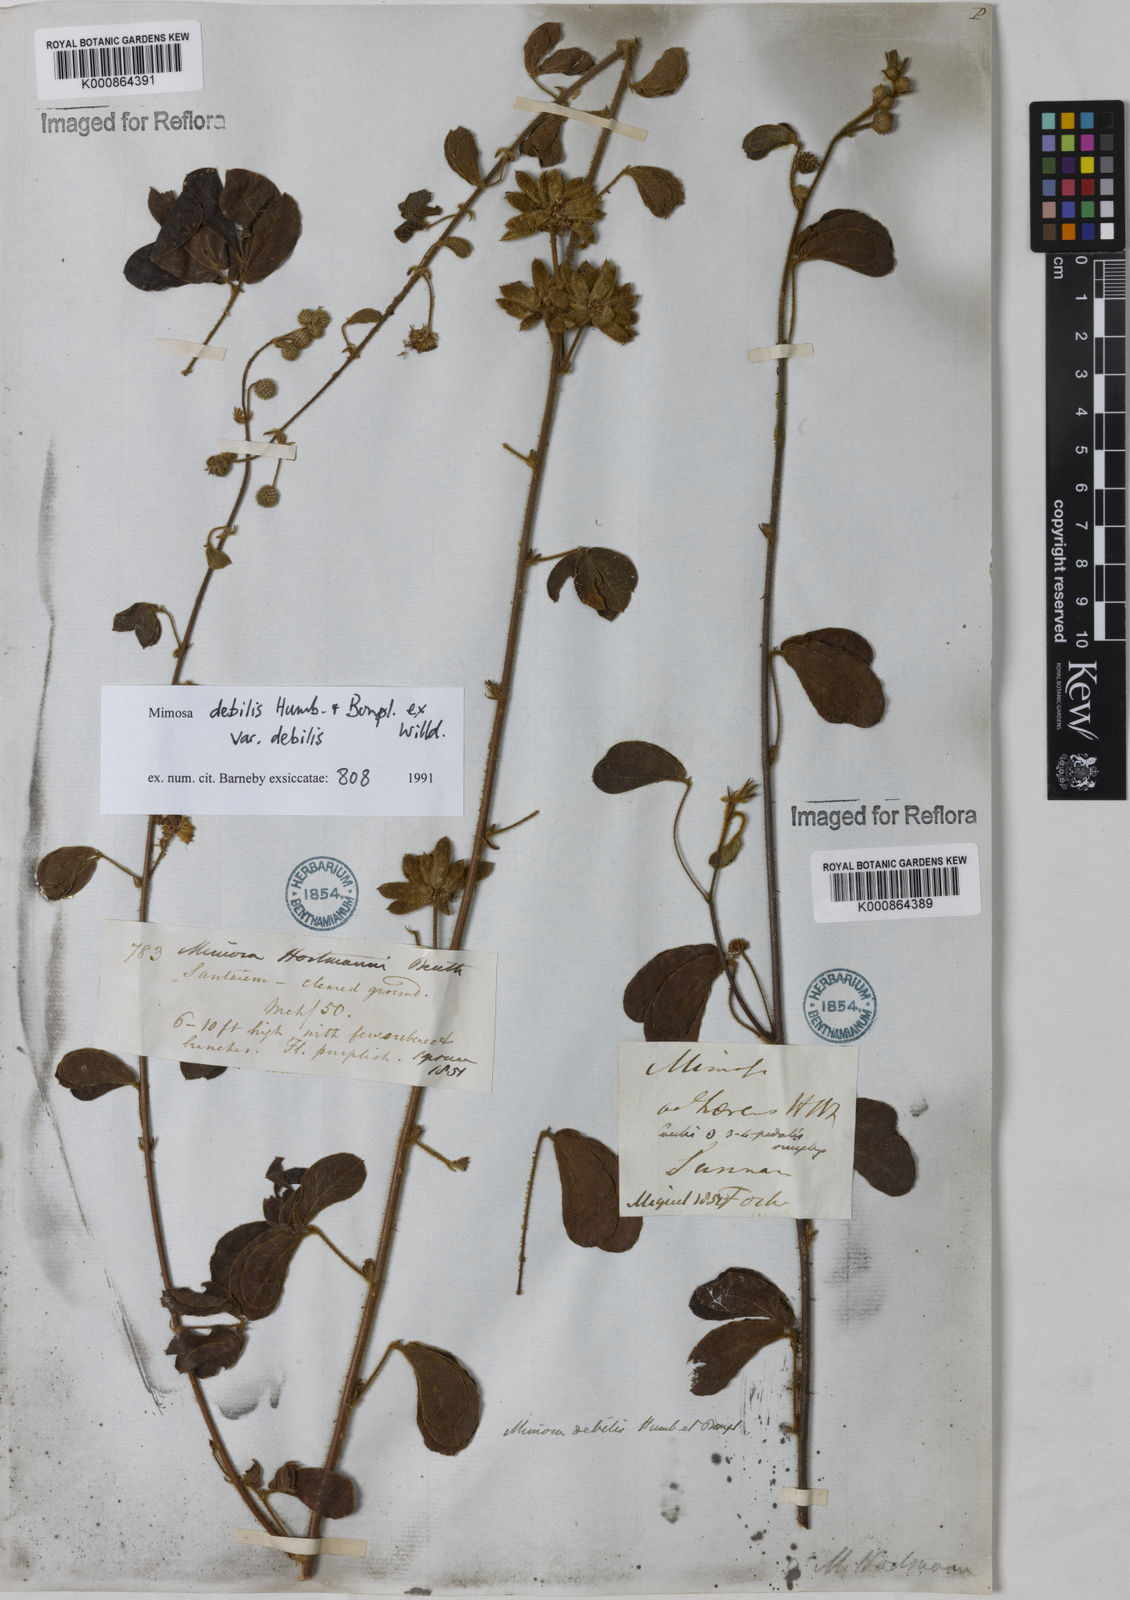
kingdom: Plantae
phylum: Tracheophyta
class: Magnoliopsida
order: Fabales
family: Fabaceae
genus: Mimosa
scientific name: Mimosa debilis
